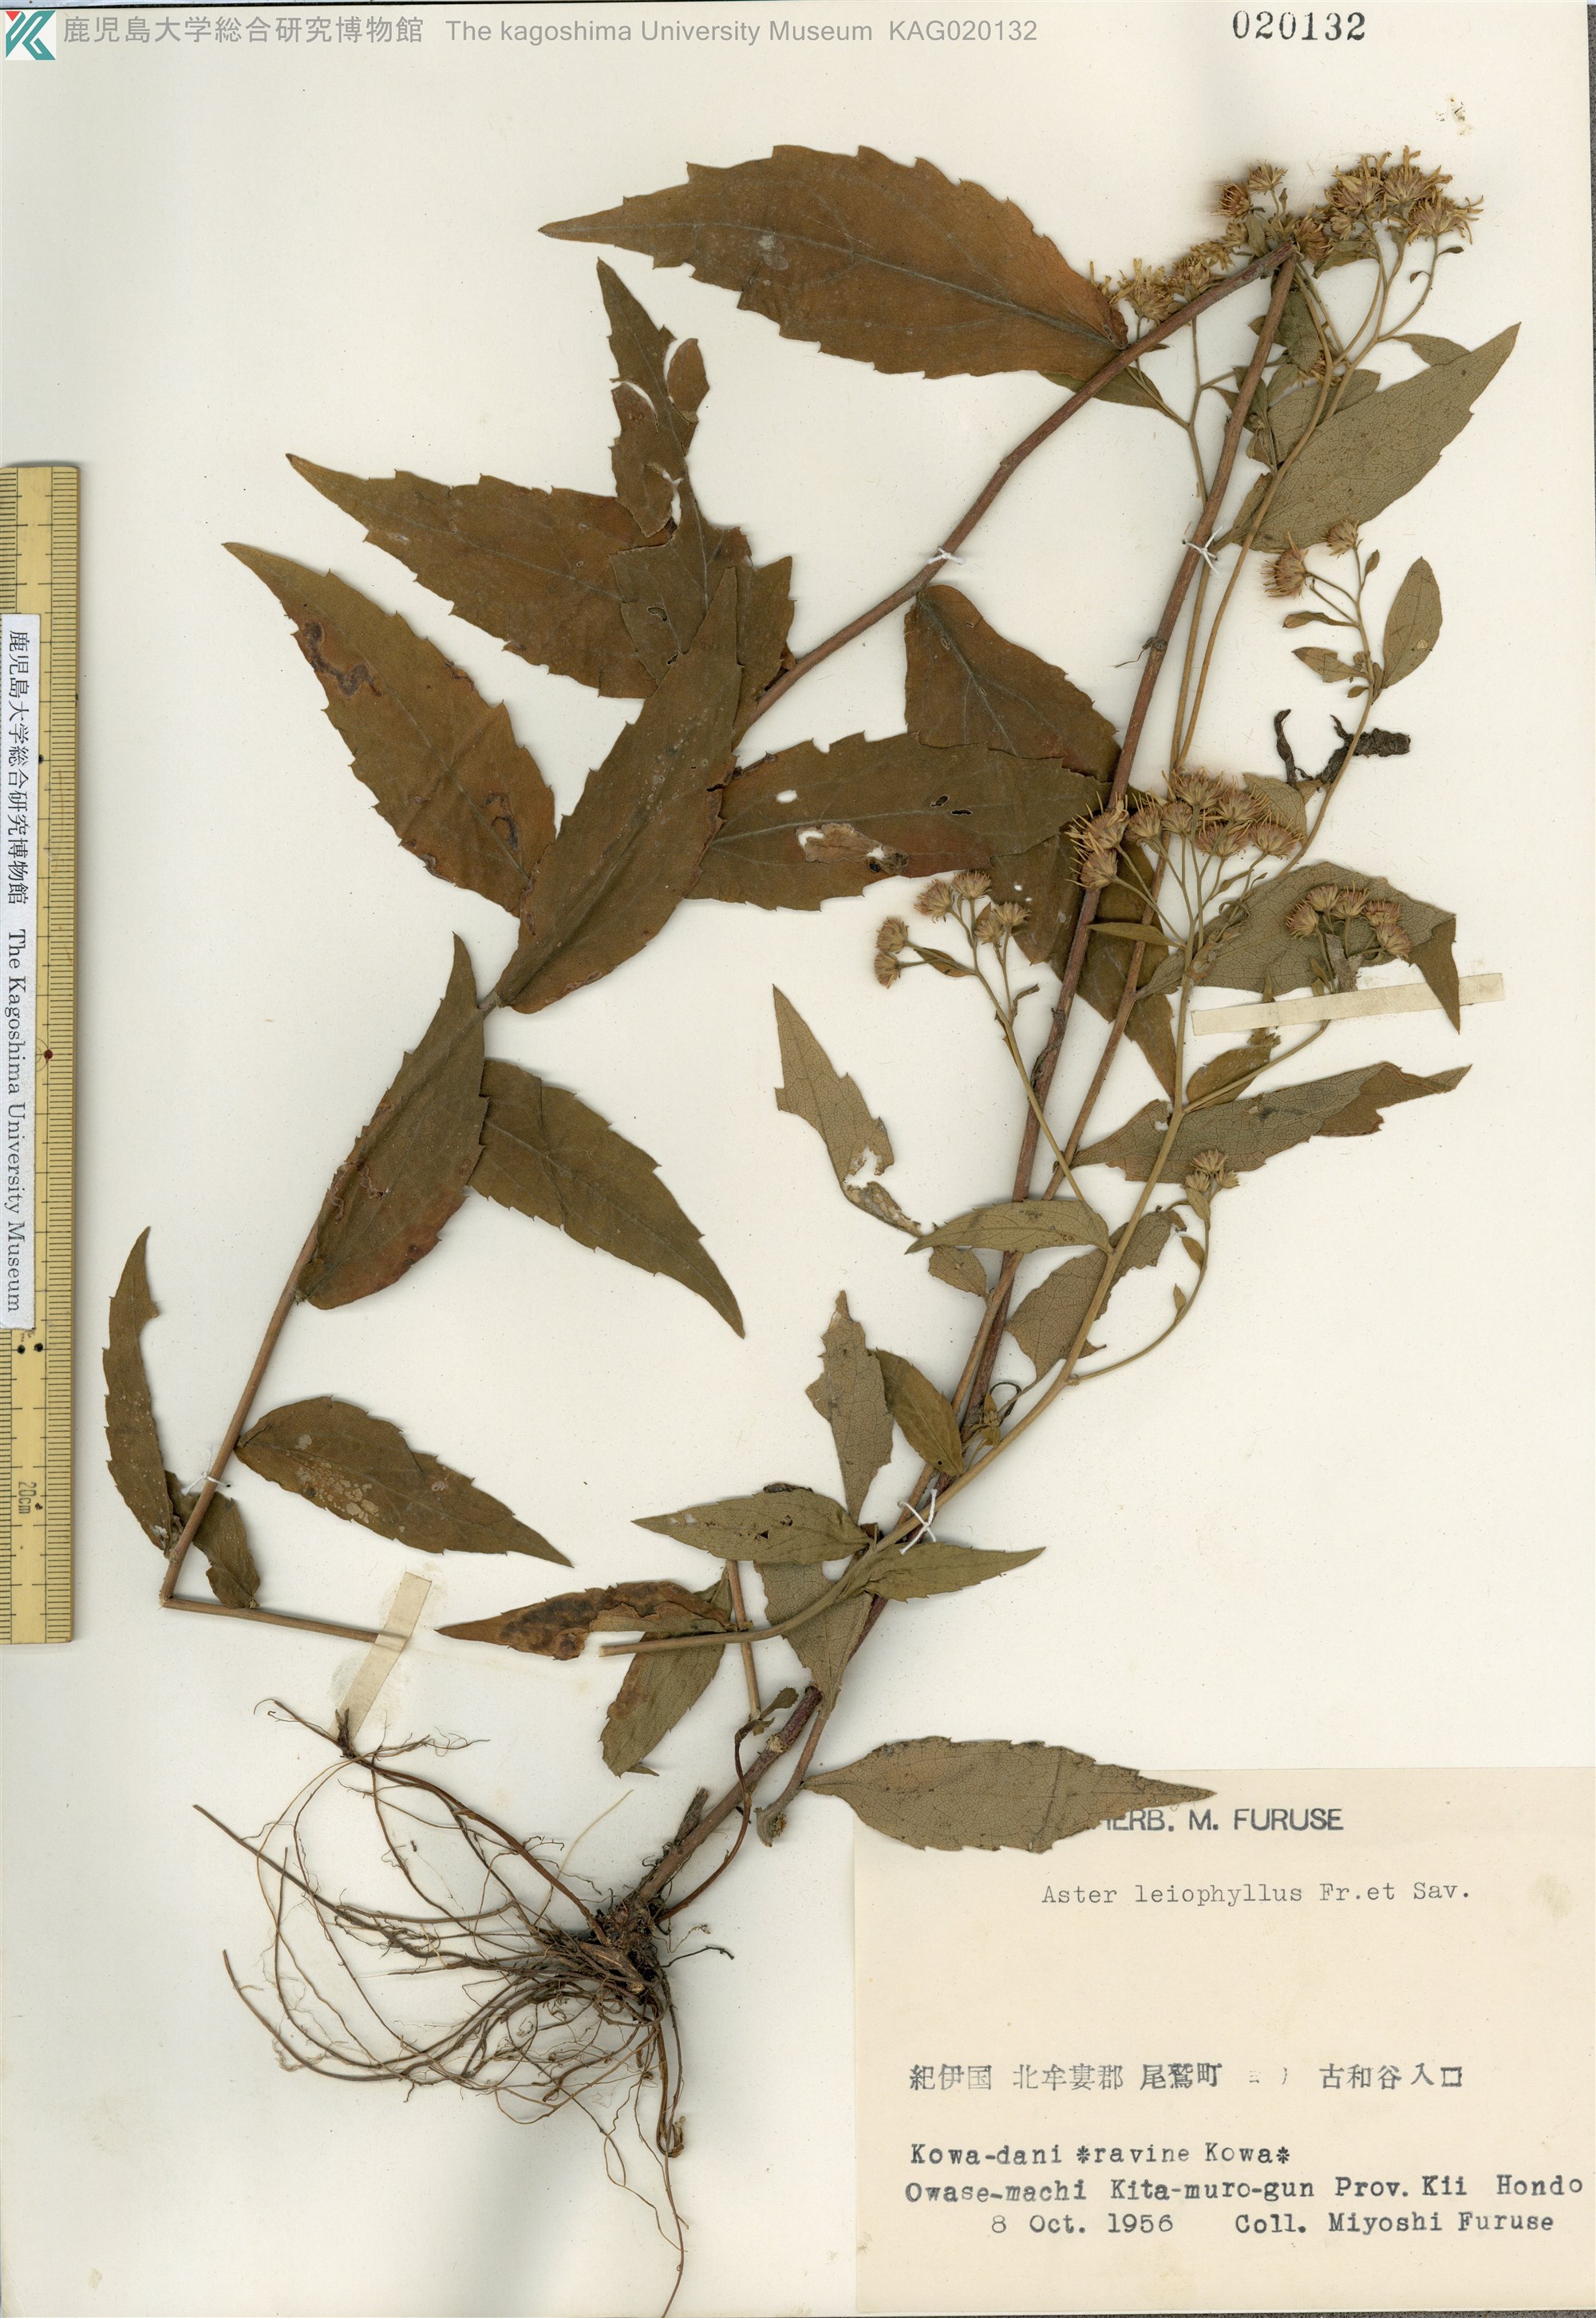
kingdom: Plantae
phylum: Tracheophyta
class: Magnoliopsida
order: Asterales
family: Asteraceae
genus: Aster
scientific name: Aster semiamplexicaulis
